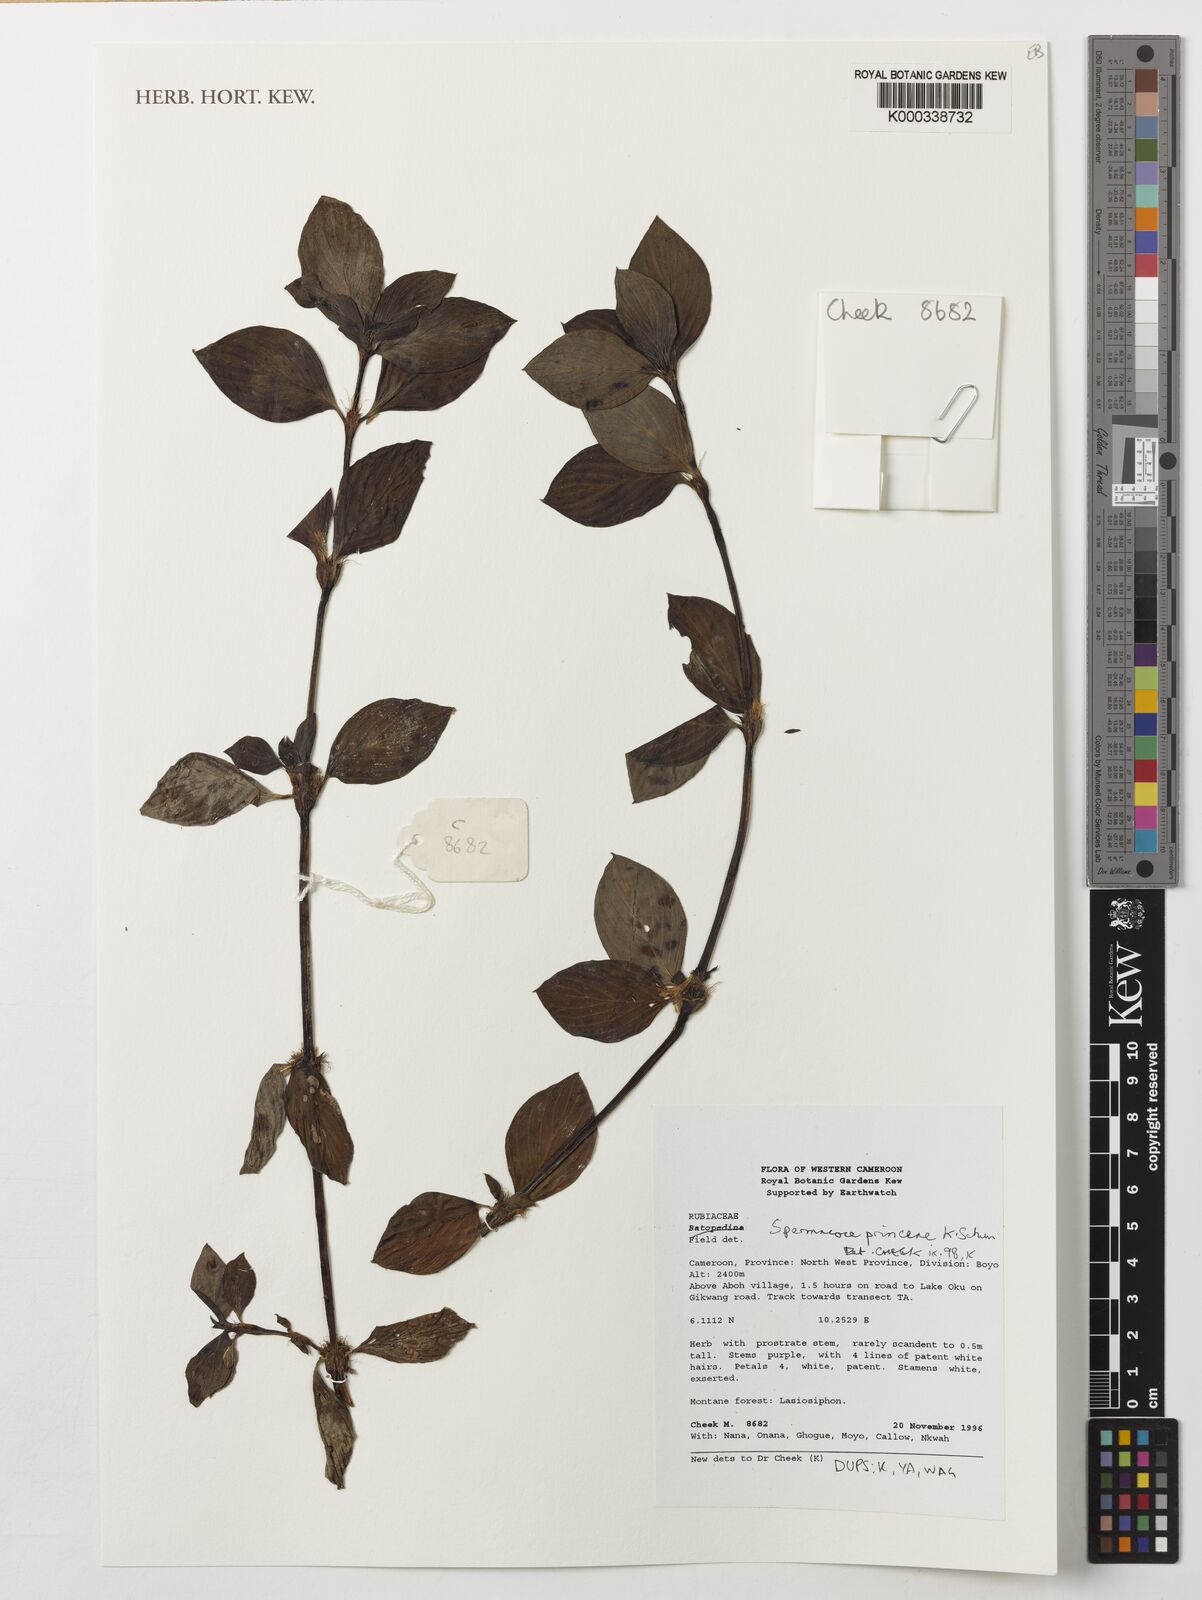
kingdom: Plantae
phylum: Tracheophyta
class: Magnoliopsida
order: Gentianales
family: Rubiaceae
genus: Spermacoce
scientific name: Spermacoce princeae
